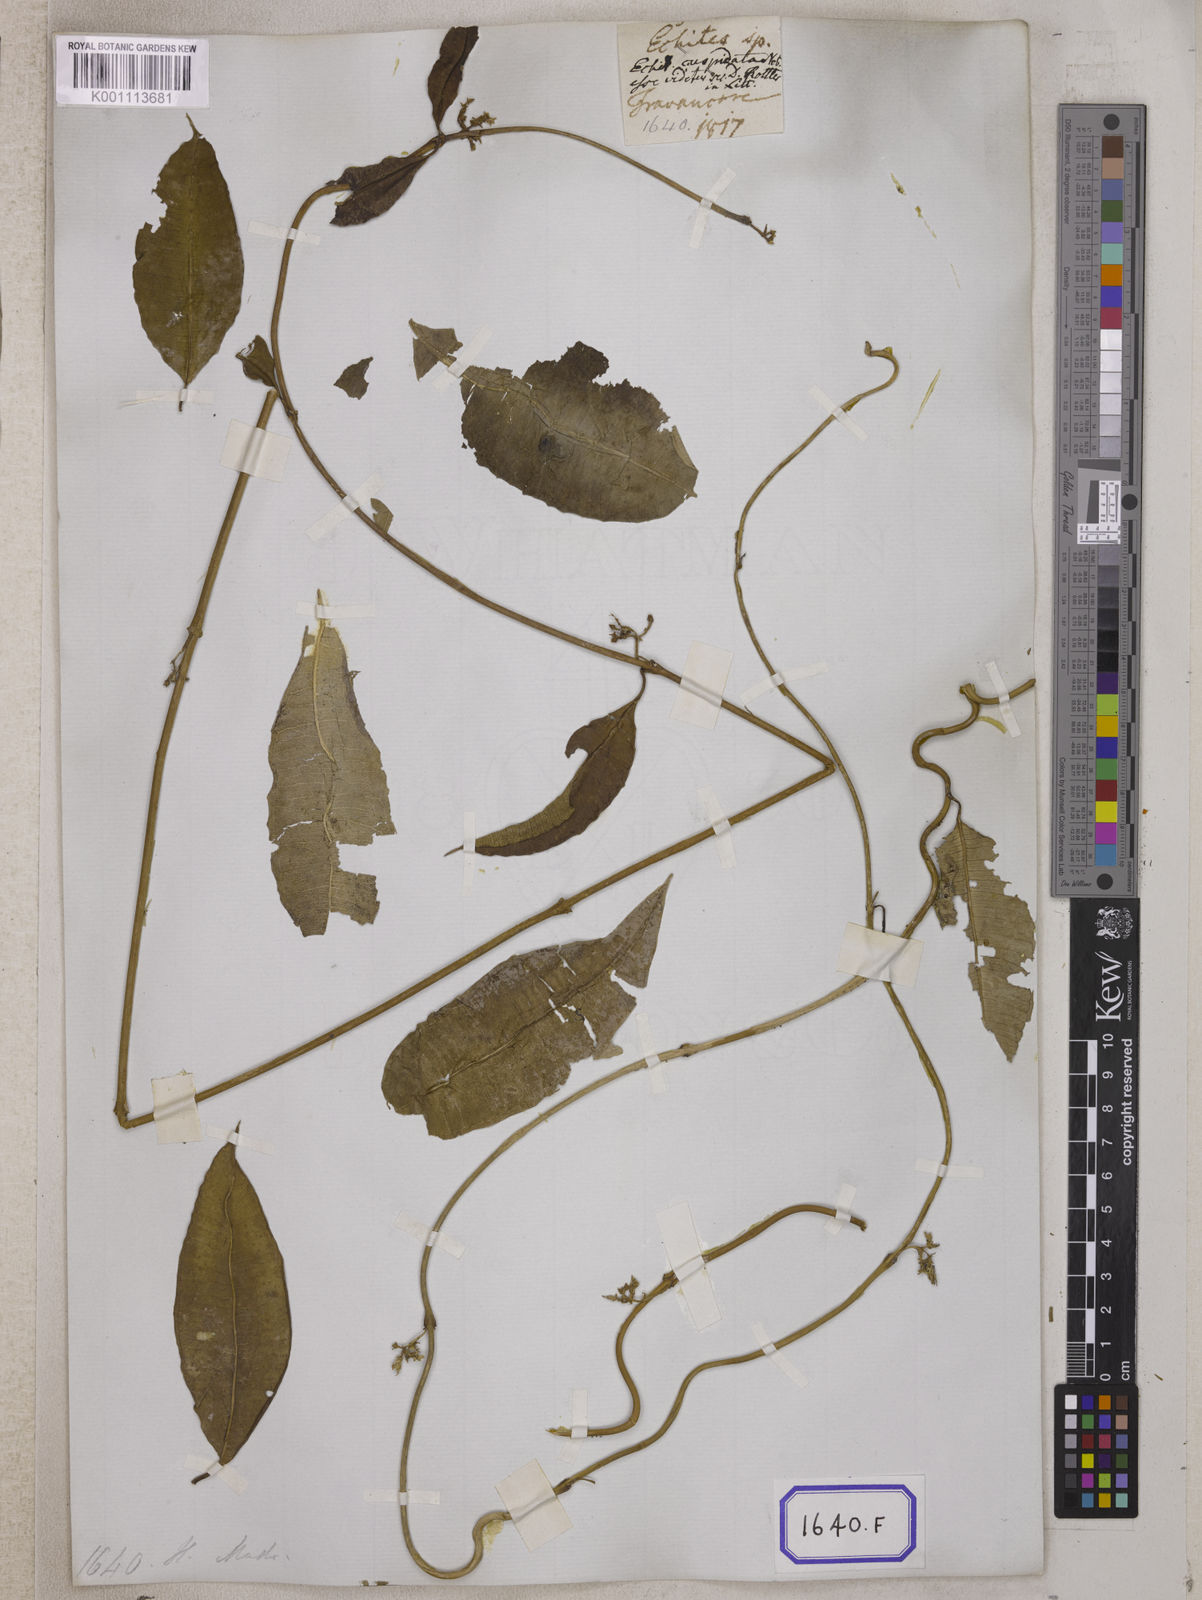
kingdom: Plantae
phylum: Tracheophyta
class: Magnoliopsida
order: Gentianales
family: Apocynaceae
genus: Cryptolepis
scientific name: Cryptolepis
